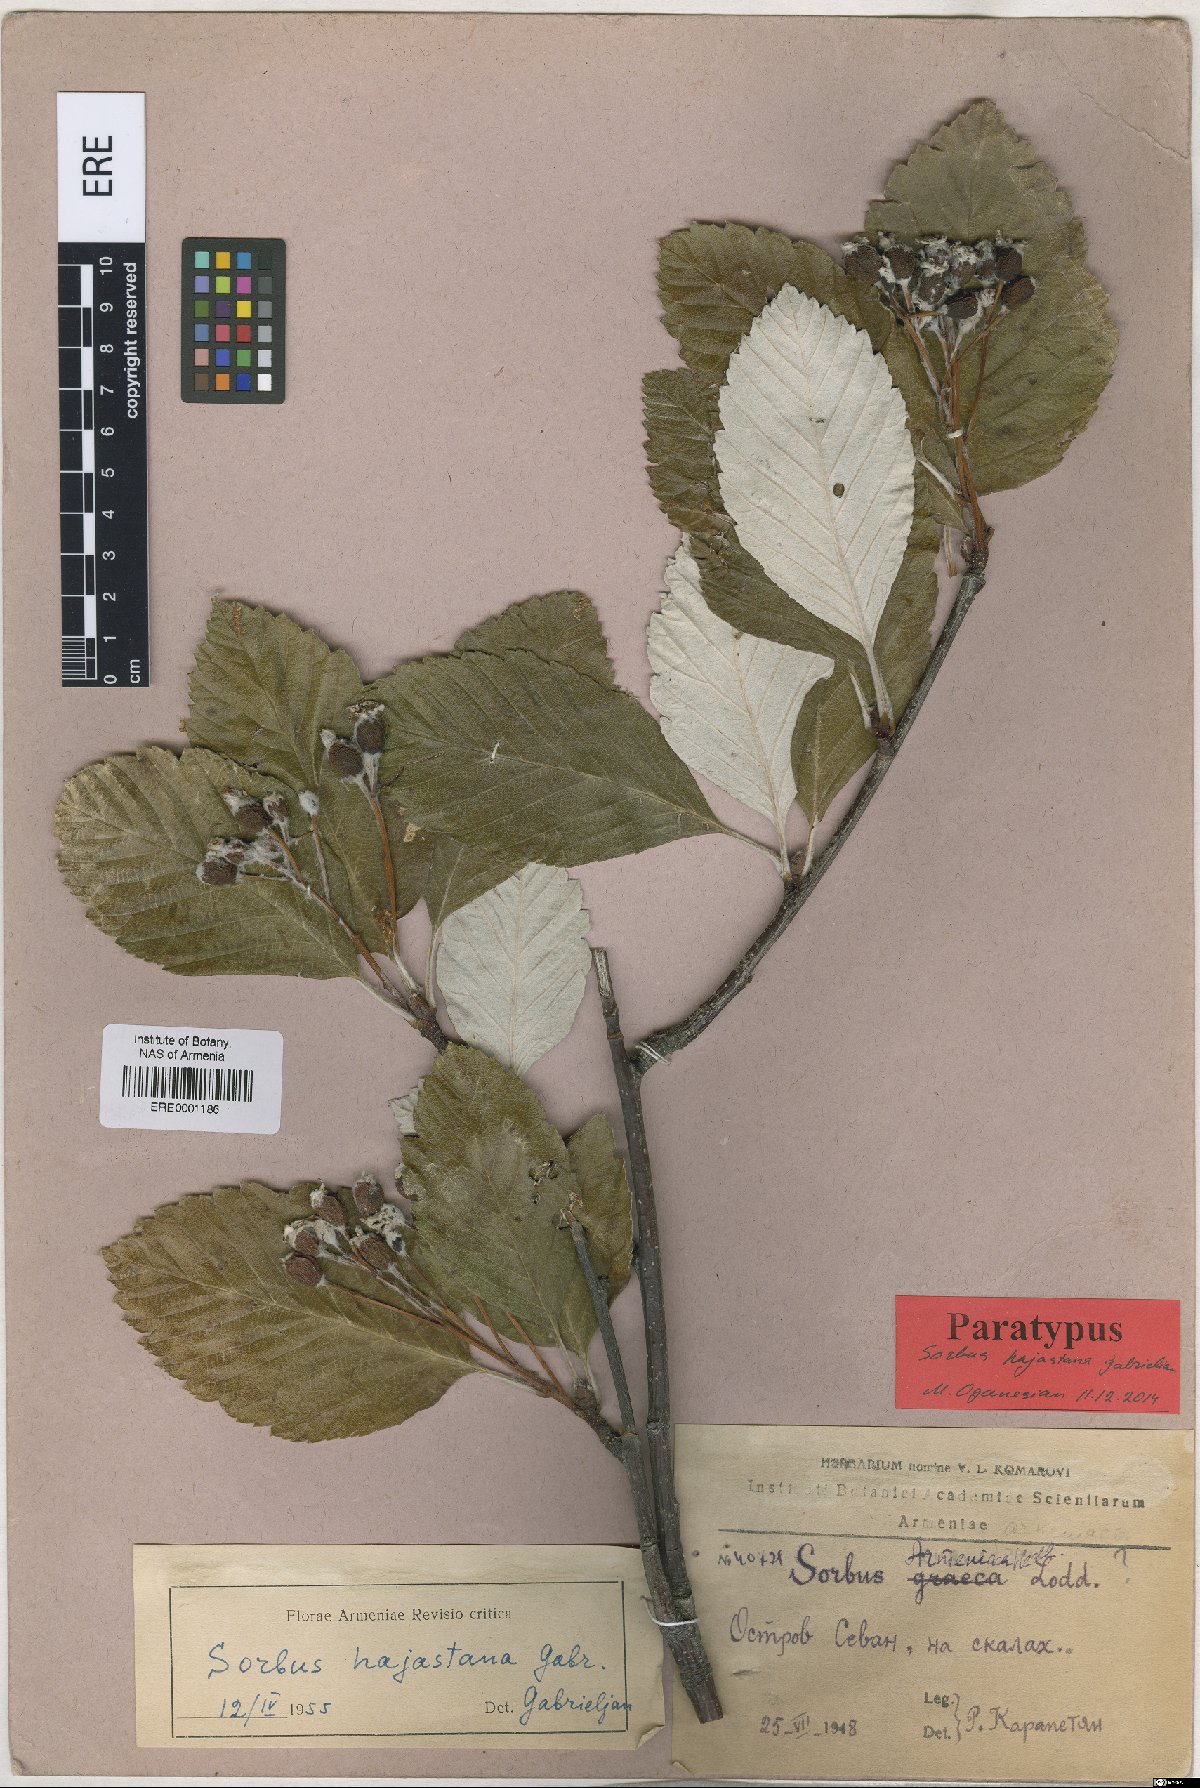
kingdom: Plantae
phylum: Tracheophyta
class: Magnoliopsida
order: Rosales
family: Rosaceae
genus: Sorbus
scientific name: Sorbus hajastana
